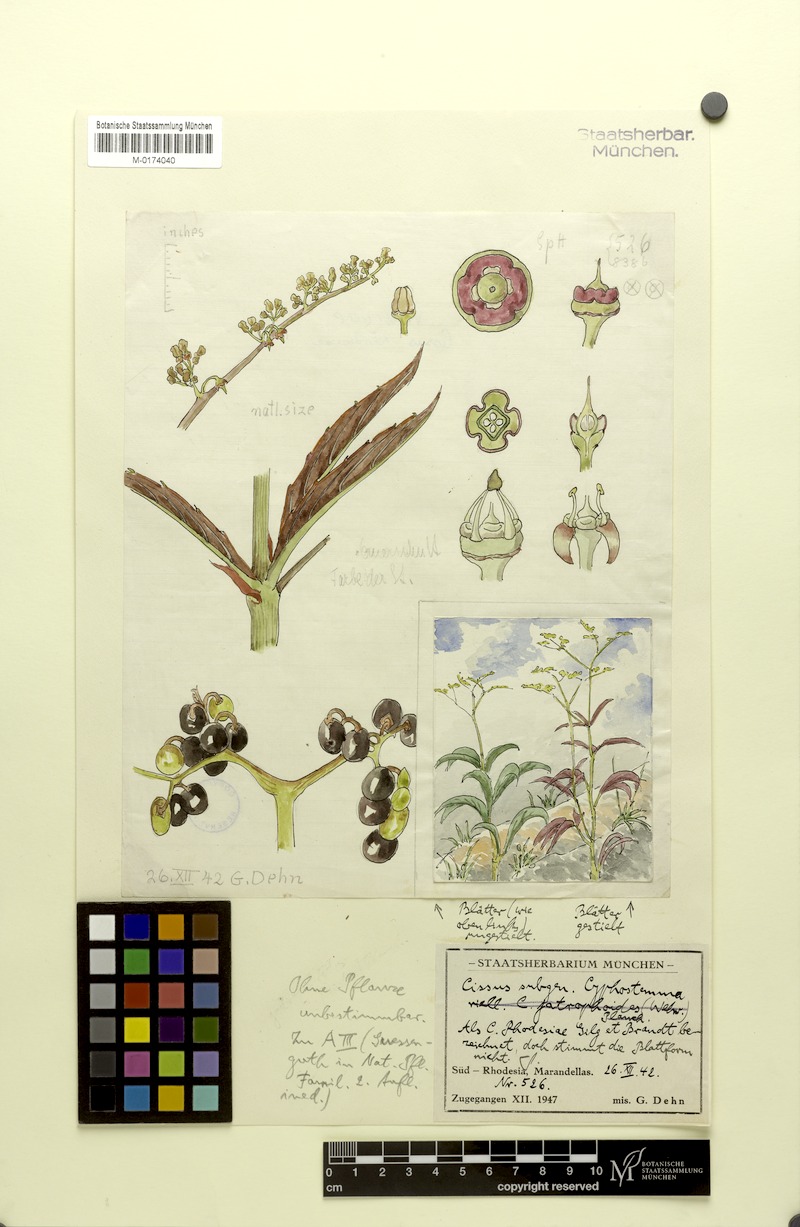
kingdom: Plantae
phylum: Tracheophyta
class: Magnoliopsida
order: Vitales
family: Vitaceae
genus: Cyphostemma
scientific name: Cyphostemma
